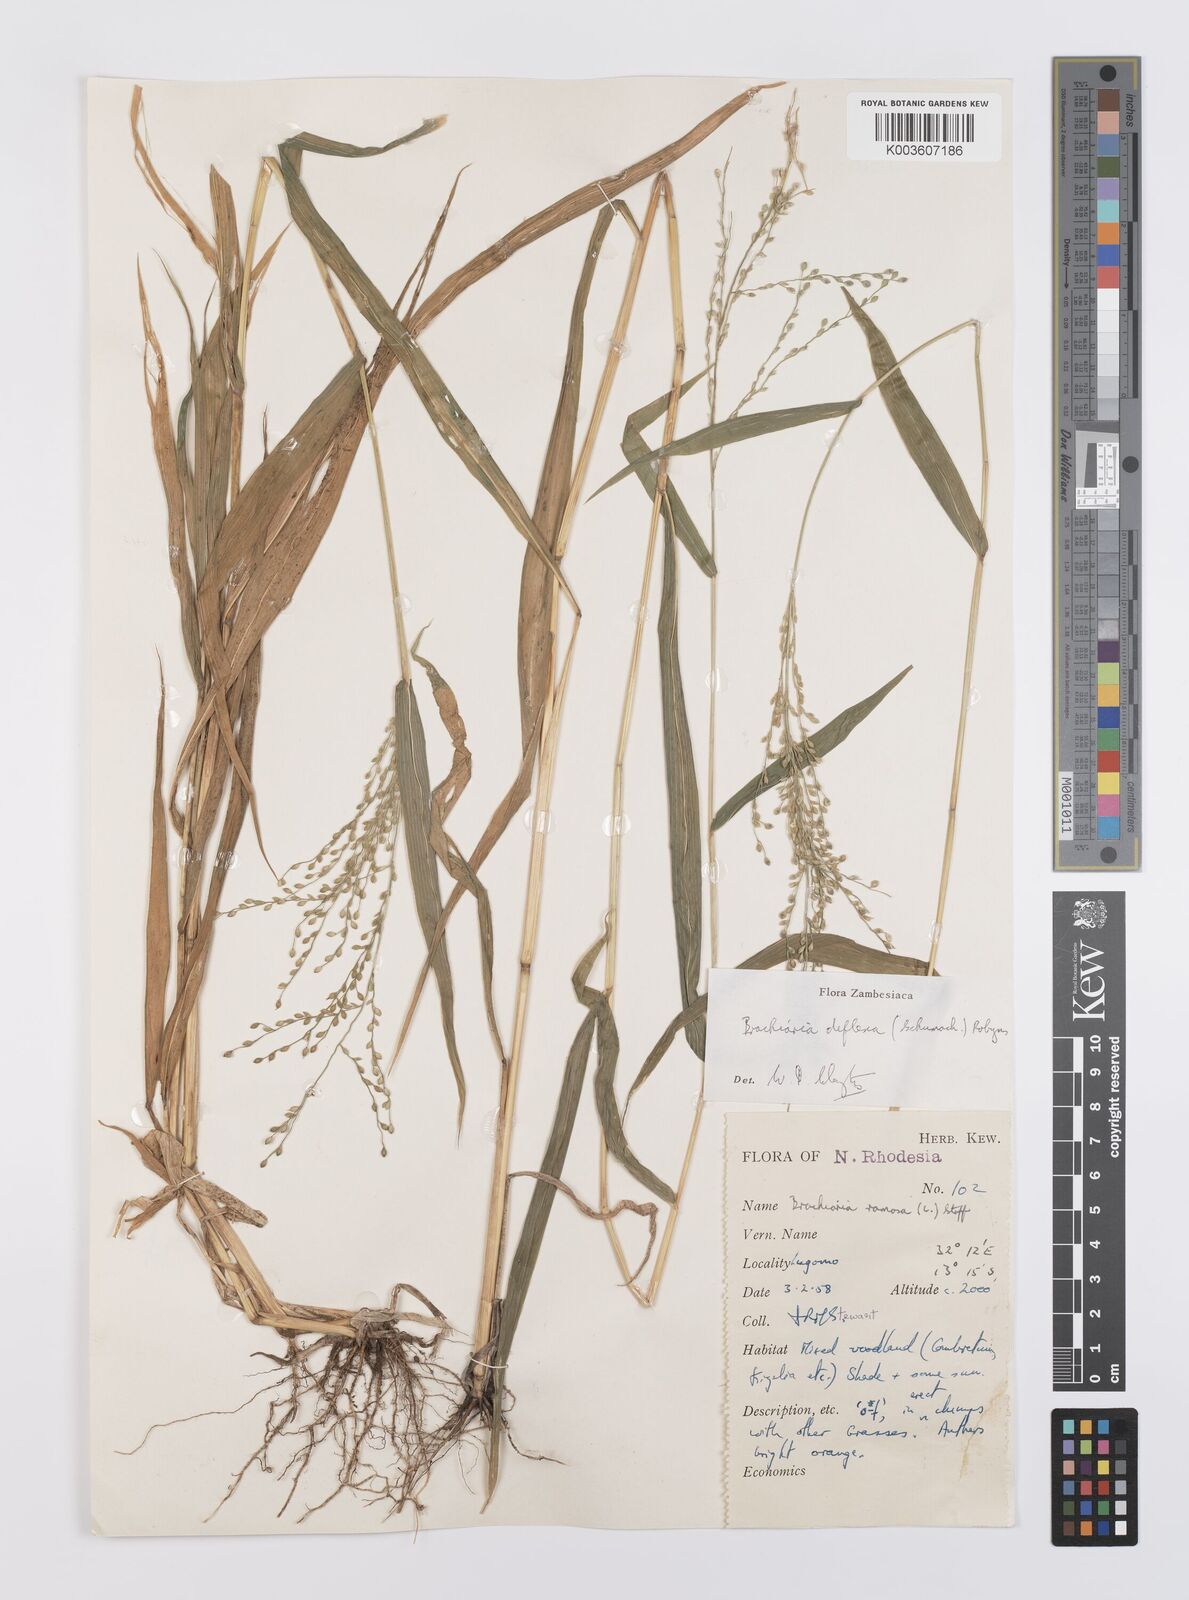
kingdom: Plantae
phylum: Tracheophyta
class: Liliopsida
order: Poales
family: Poaceae
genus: Urochloa
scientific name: Urochloa deflexa
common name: Guinea millet
